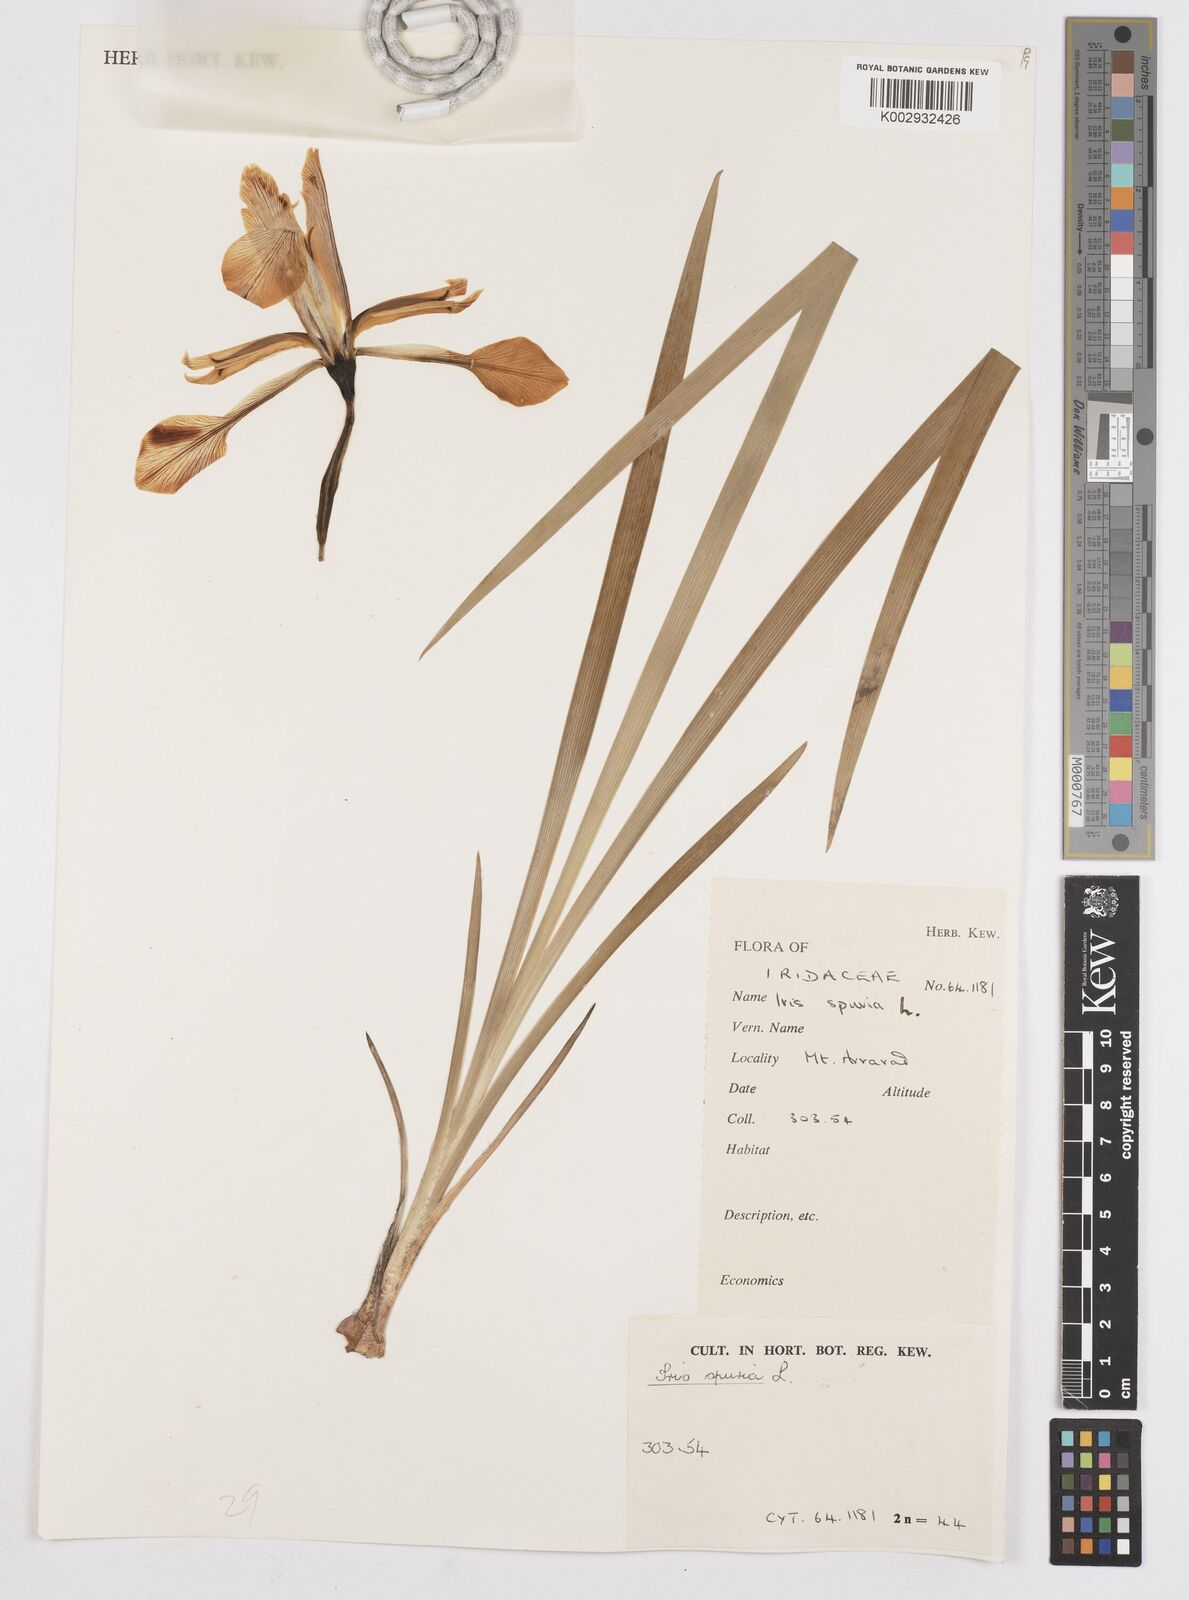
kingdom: Plantae
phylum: Tracheophyta
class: Liliopsida
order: Asparagales
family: Iridaceae
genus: Iris
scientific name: Iris spuria
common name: Blue iris
